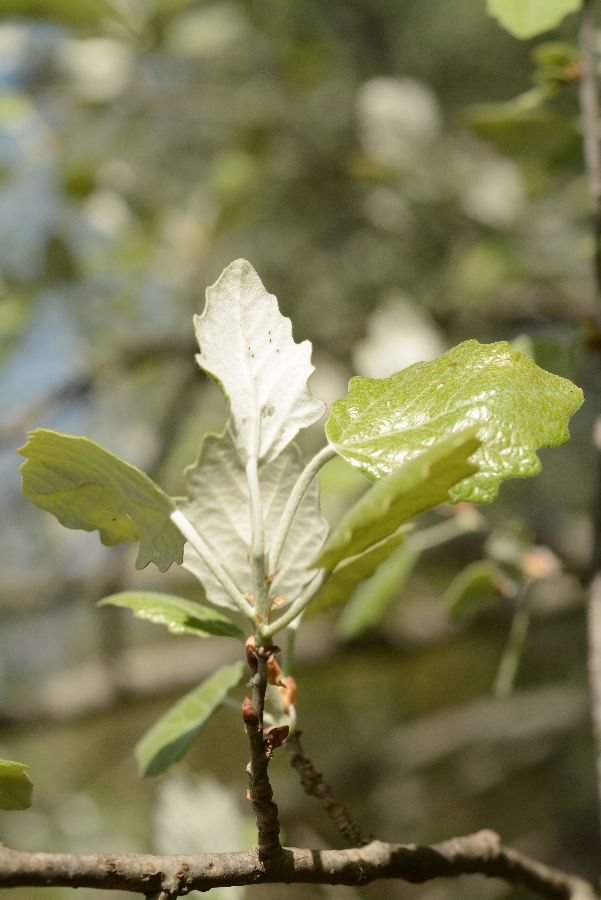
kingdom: Plantae
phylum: Tracheophyta
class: Magnoliopsida
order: Malpighiales
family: Salicaceae
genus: Populus
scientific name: Populus alba
